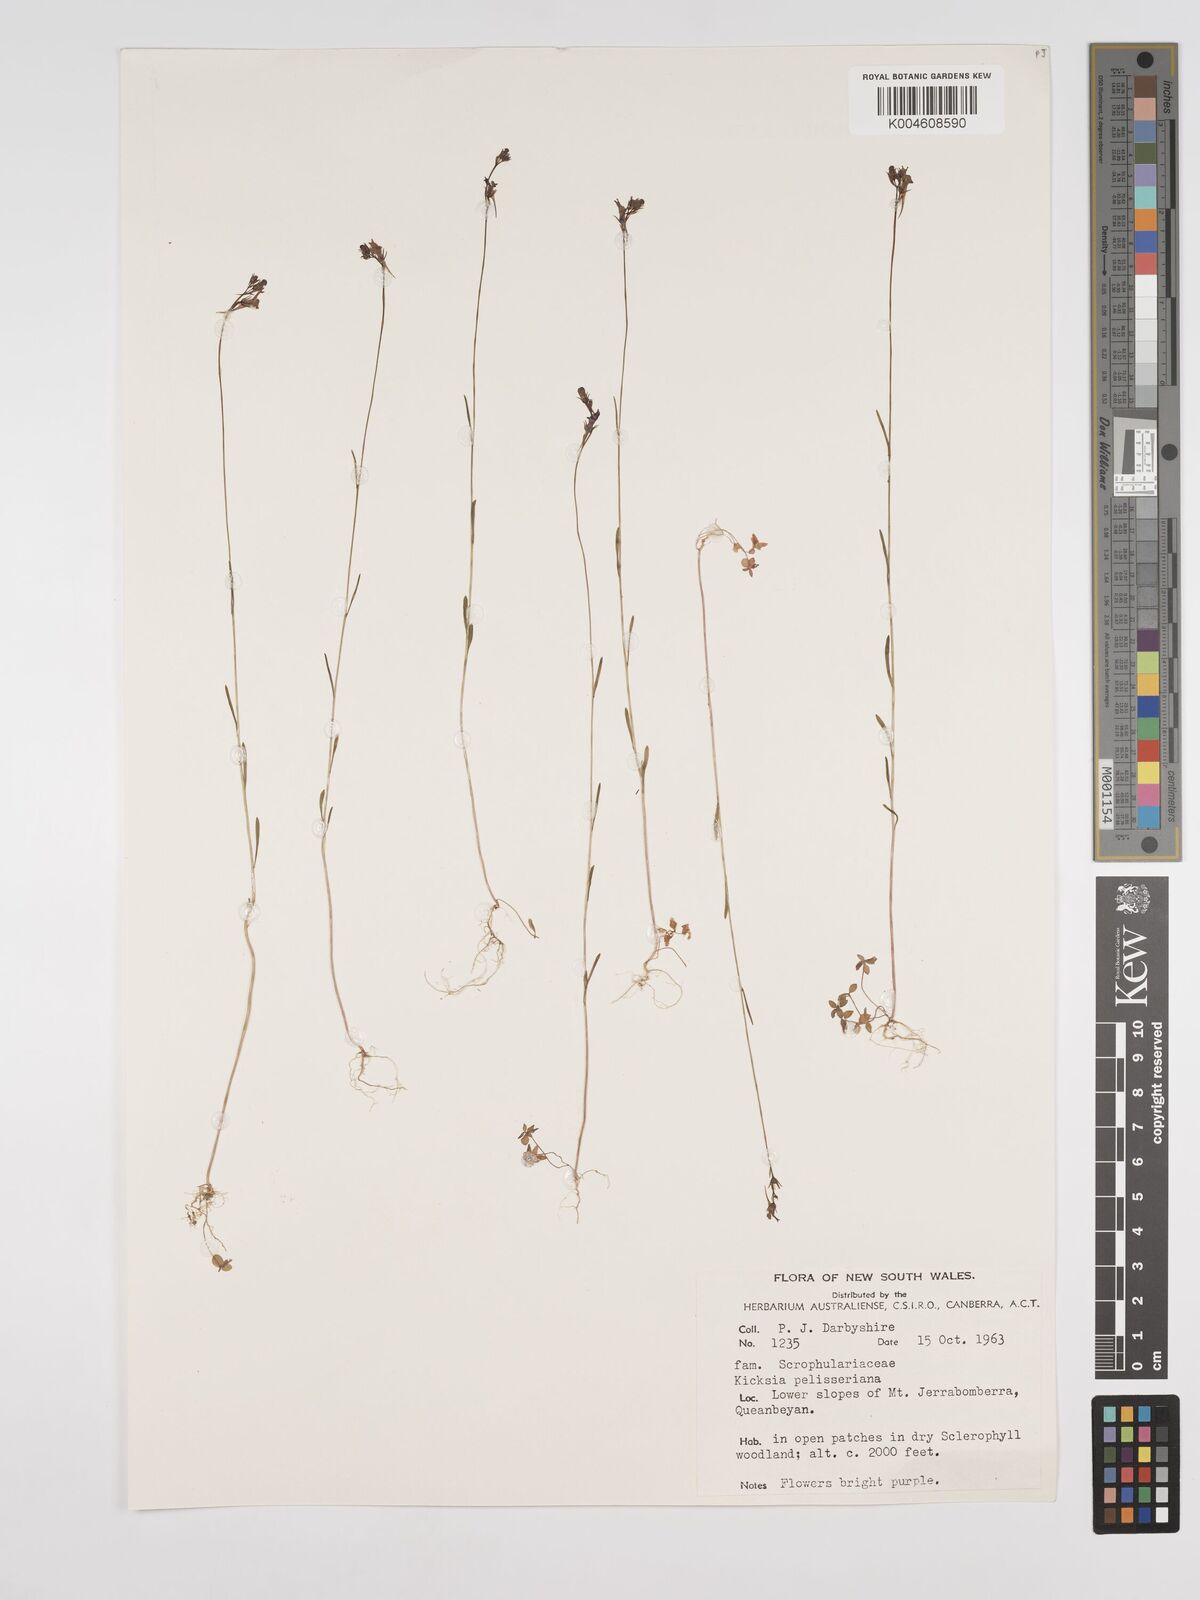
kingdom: Plantae
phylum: Tracheophyta
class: Magnoliopsida
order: Lamiales
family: Plantaginaceae
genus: Kickxia
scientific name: Kickxia
